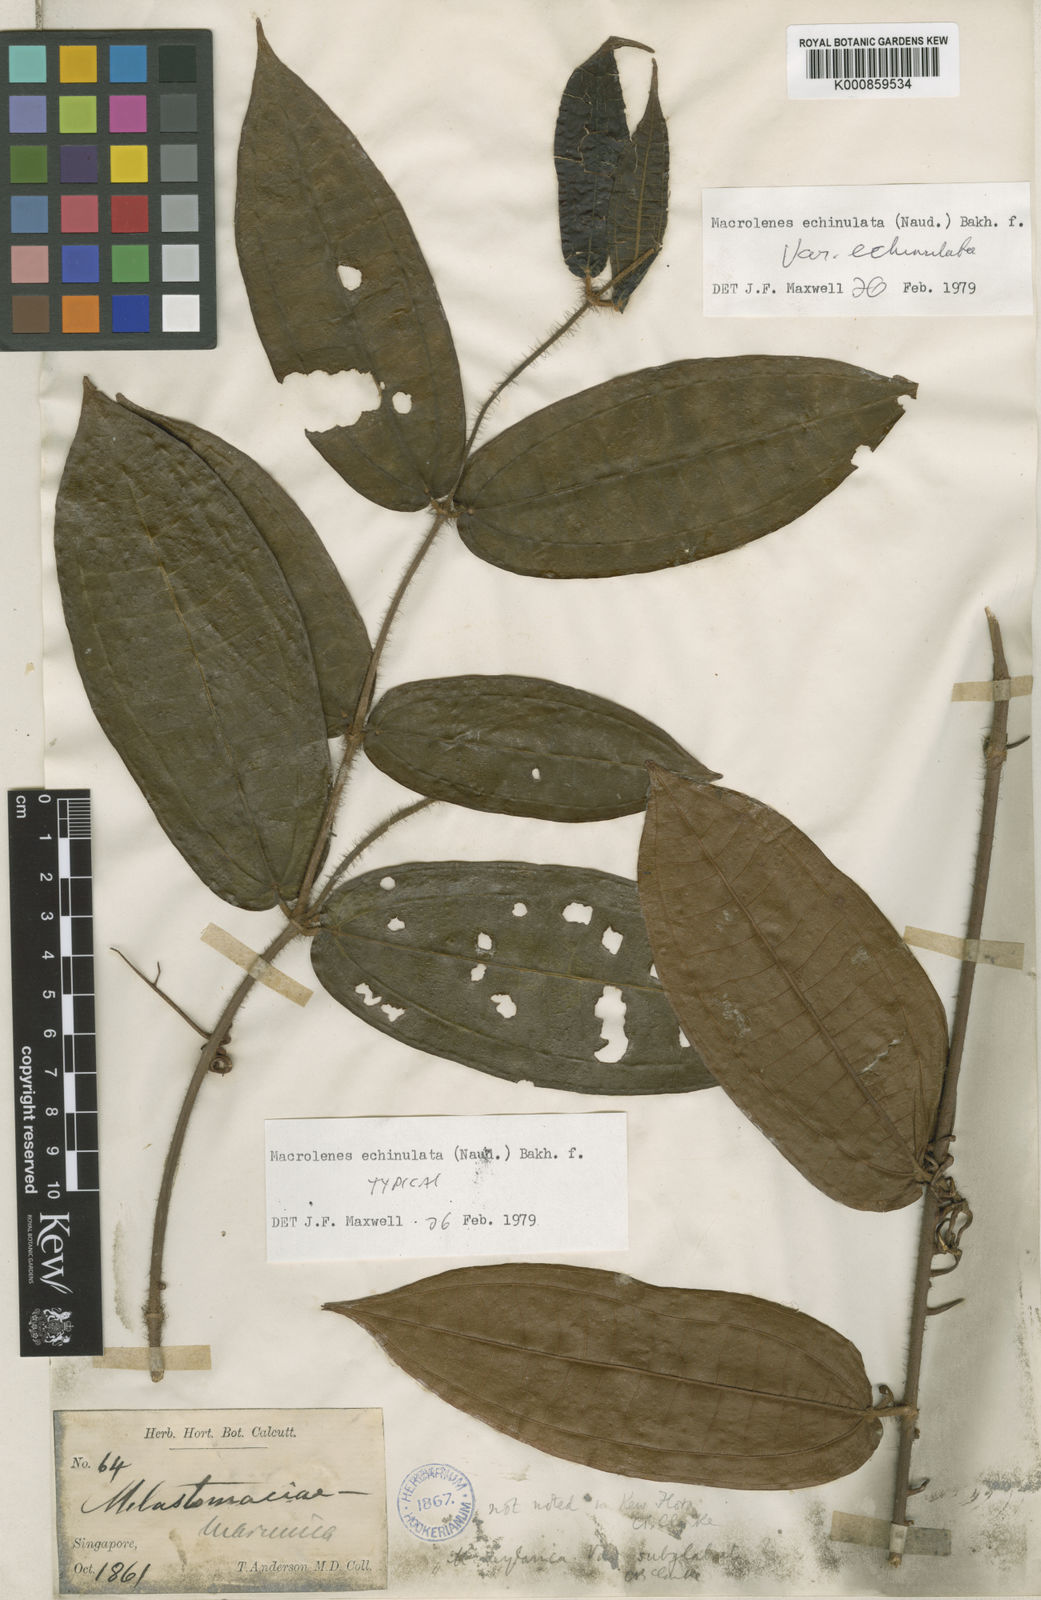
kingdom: Plantae
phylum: Tracheophyta
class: Magnoliopsida
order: Myrtales
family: Melastomataceae
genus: Macrolenes
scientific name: Macrolenes echinulata
